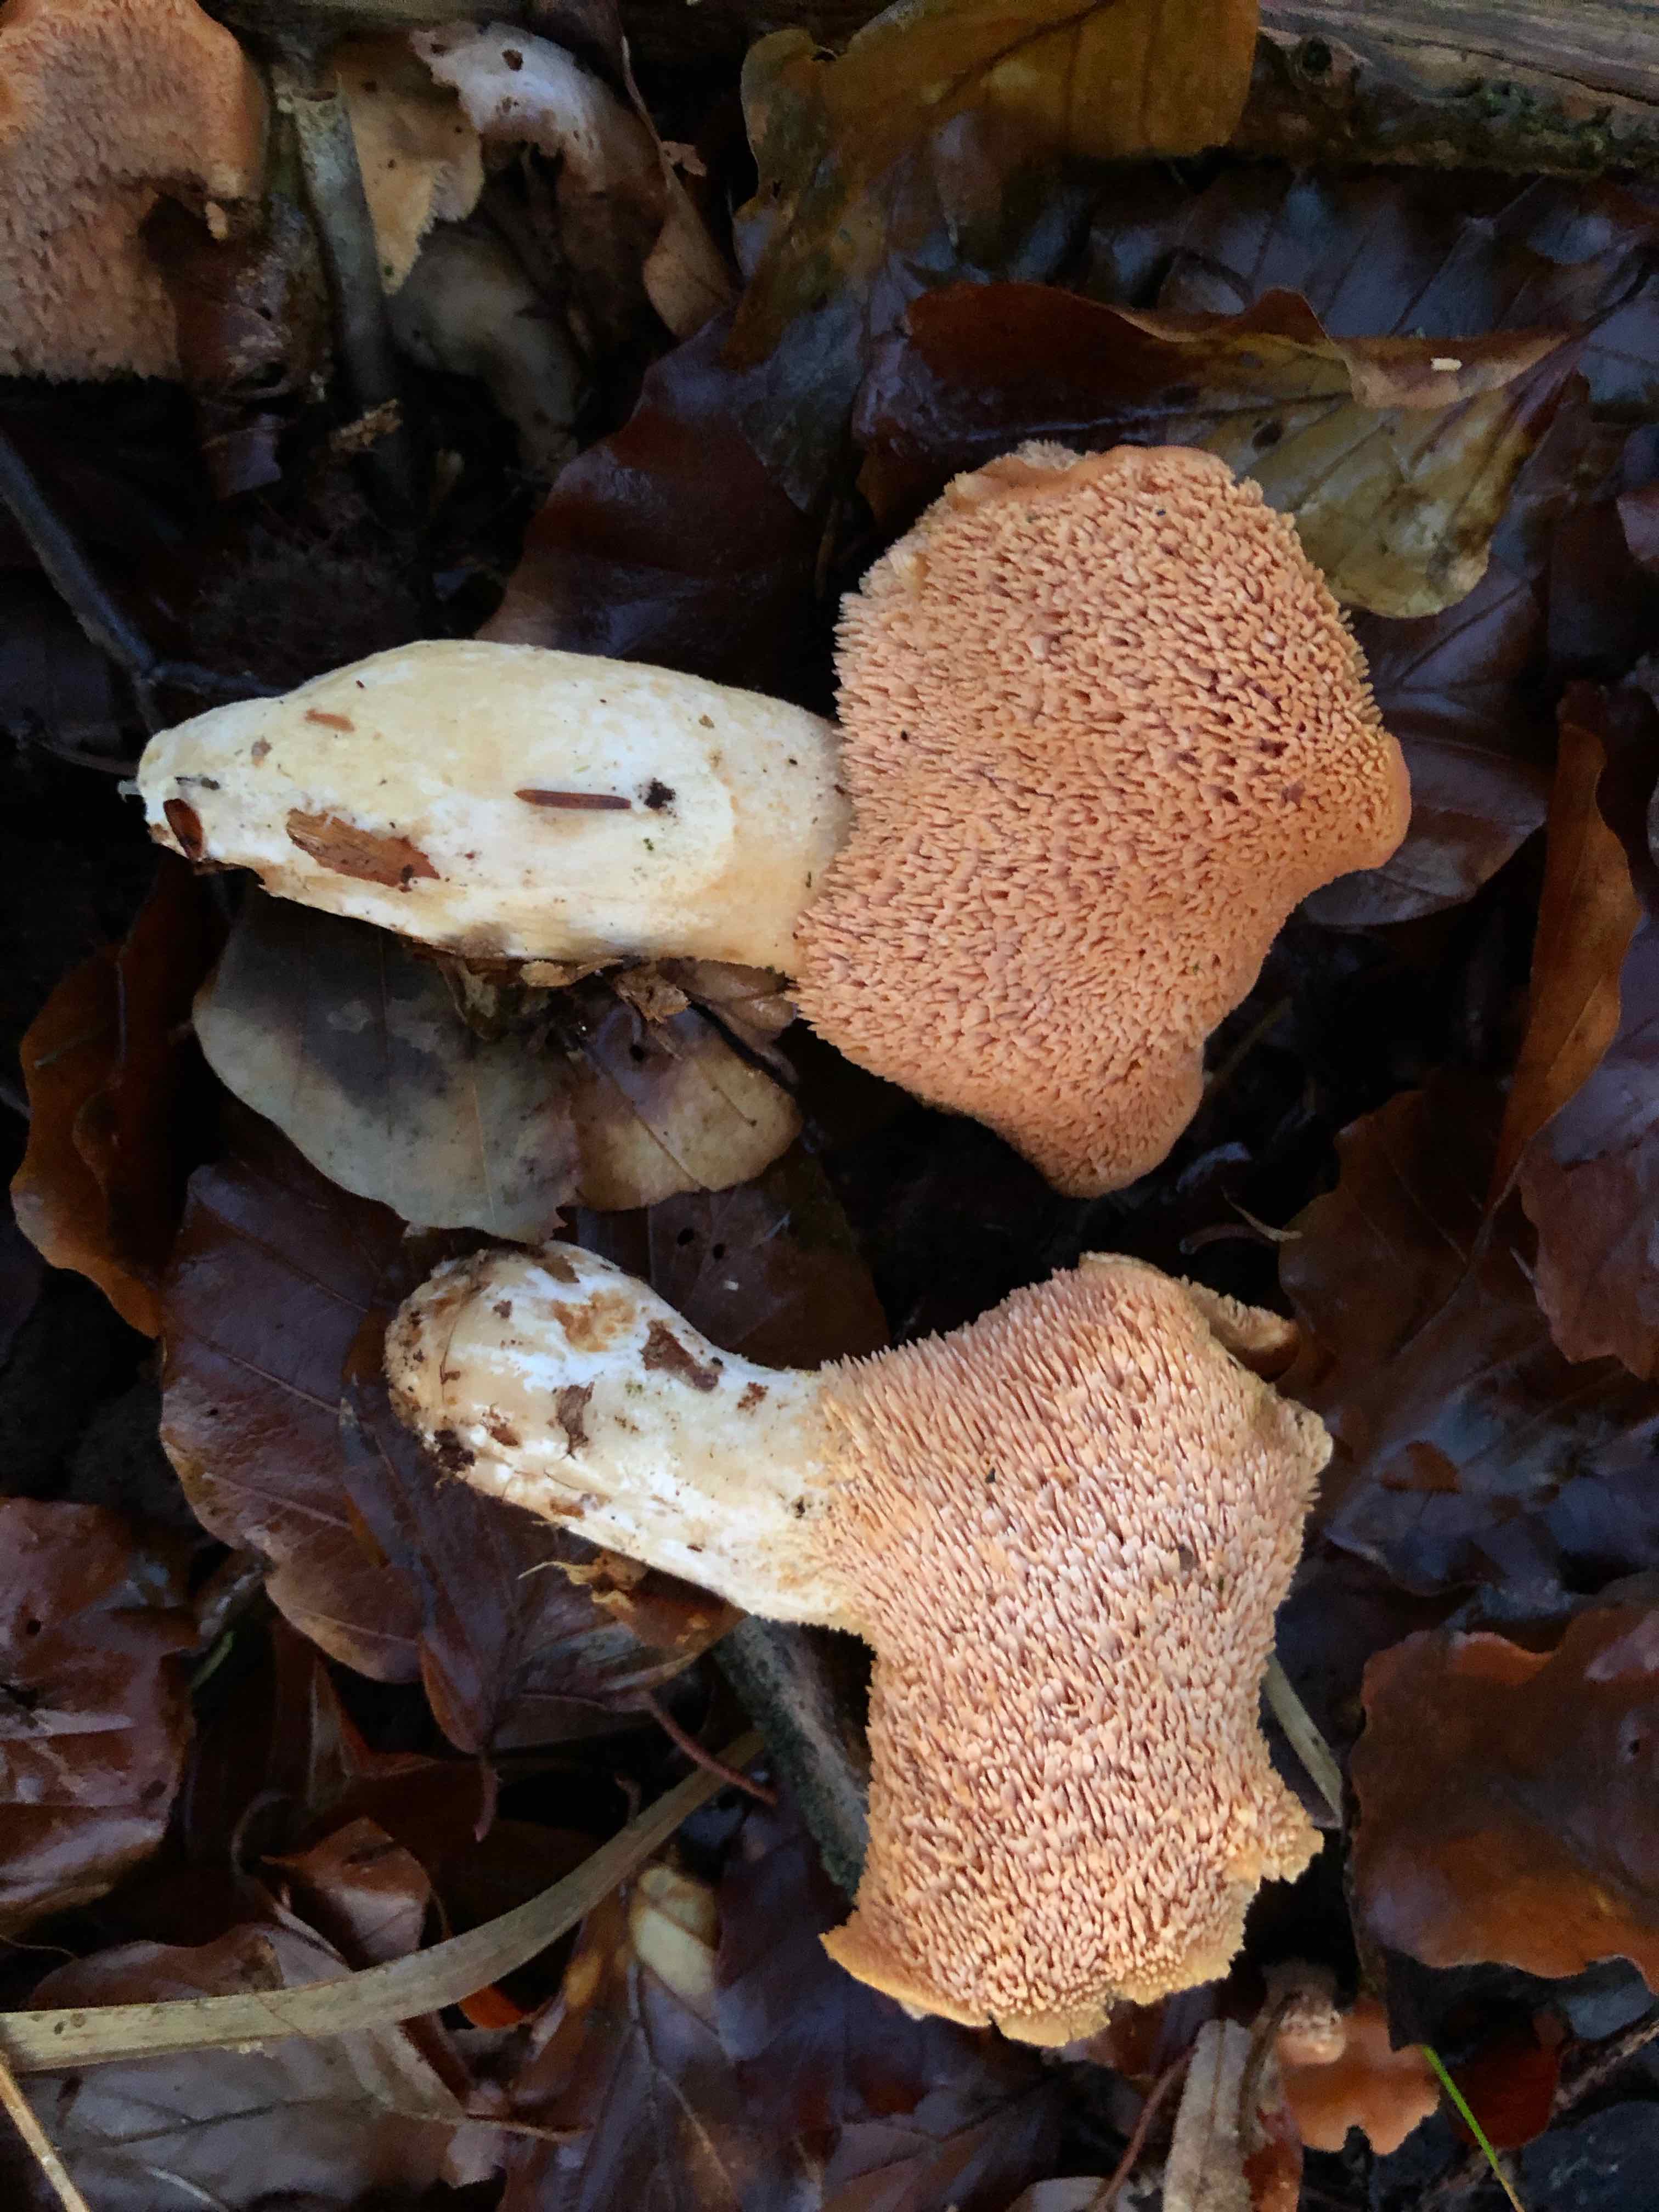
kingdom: Fungi
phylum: Basidiomycota
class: Agaricomycetes
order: Cantharellales
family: Hydnaceae
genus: Hydnum
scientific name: Hydnum
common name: pigsvamp
